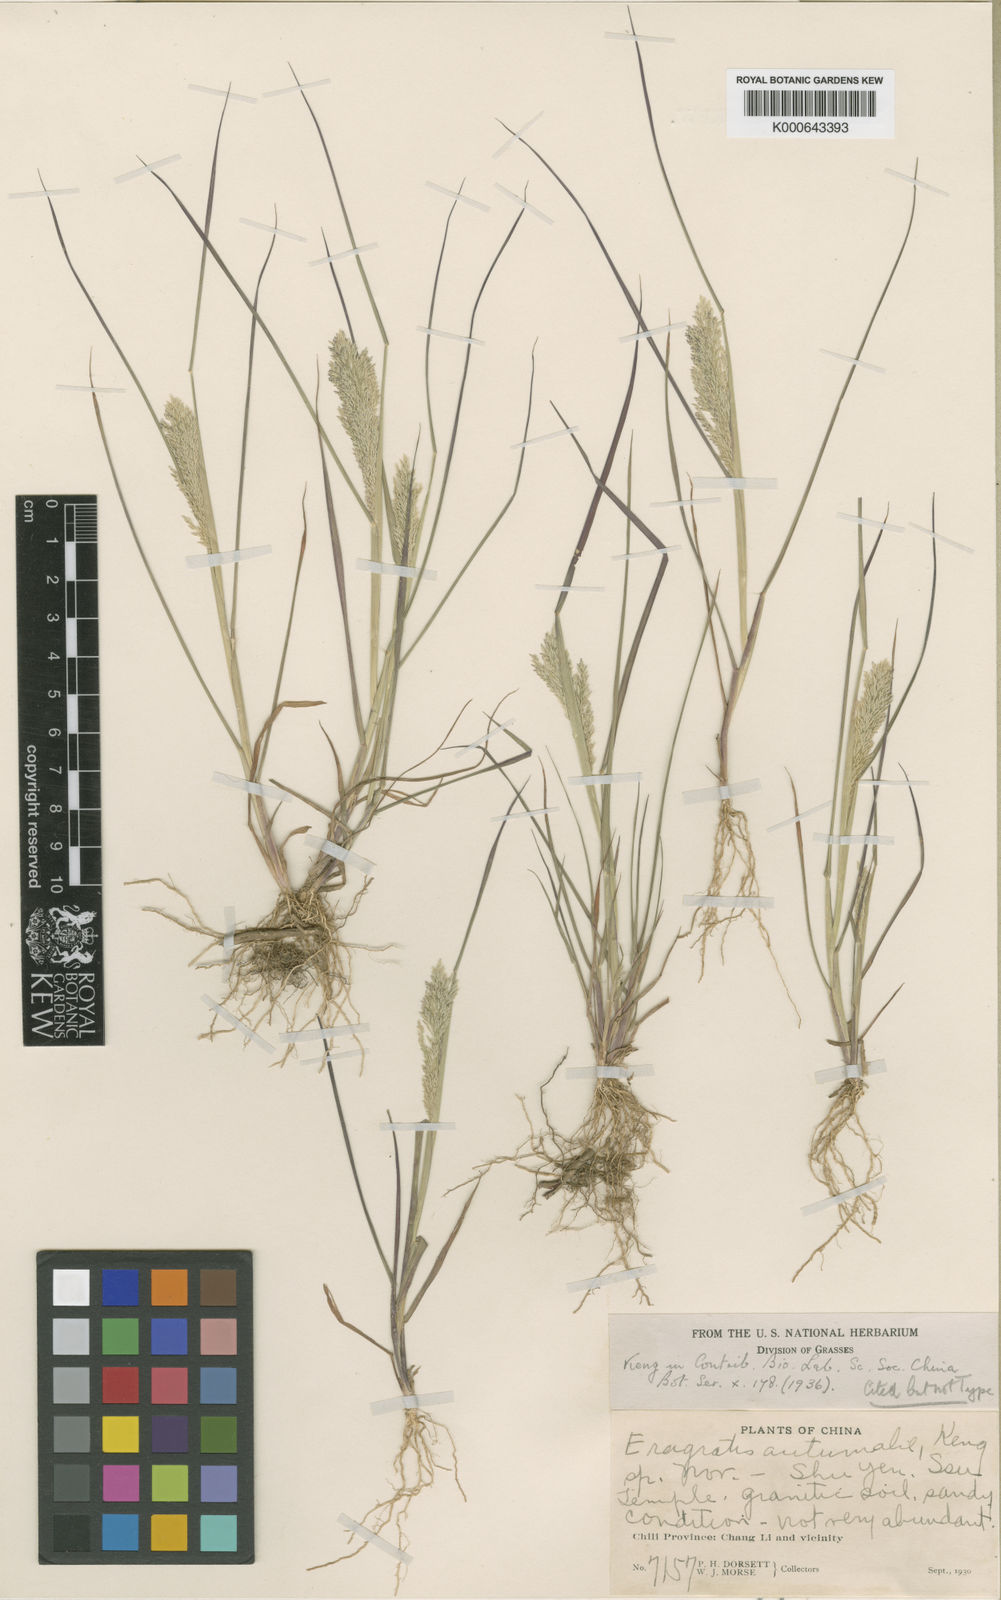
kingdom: Plantae
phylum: Tracheophyta
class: Liliopsida
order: Poales
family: Poaceae
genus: Eragrostis
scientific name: Eragrostis autumnalis
